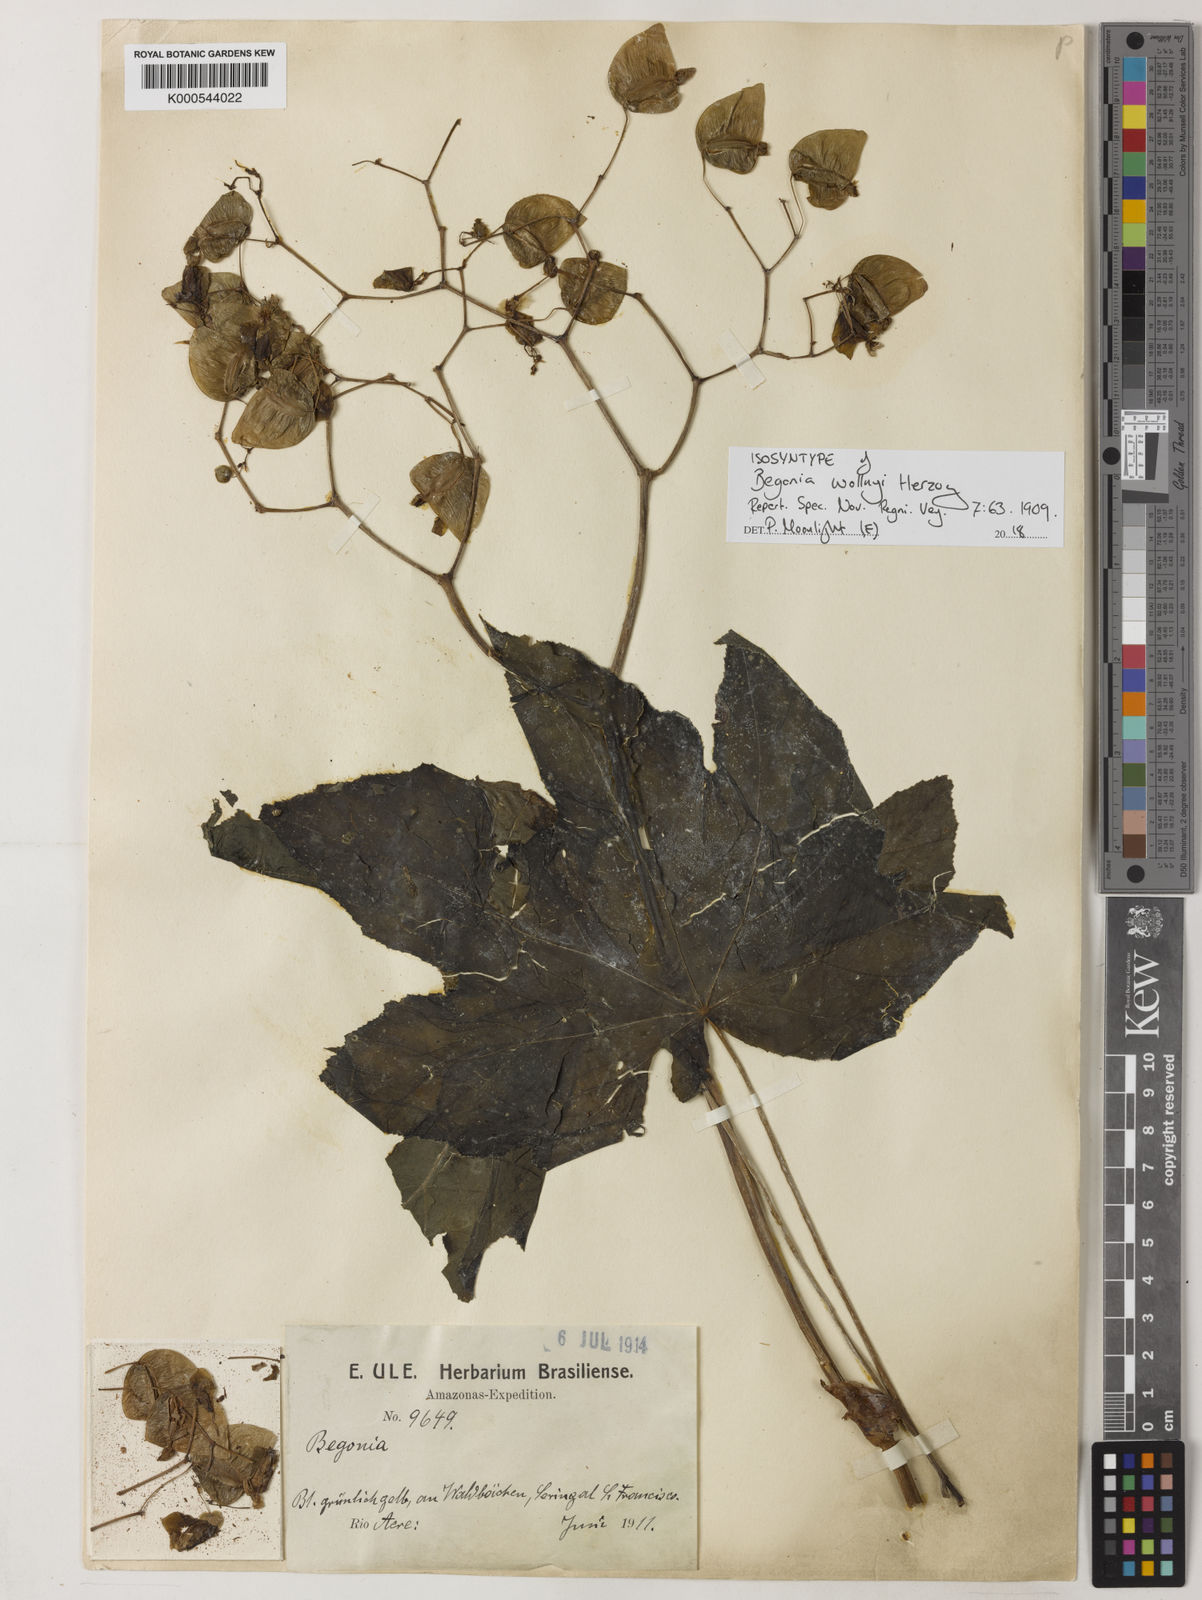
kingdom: Plantae
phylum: Tracheophyta
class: Magnoliopsida
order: Cucurbitales
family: Begoniaceae
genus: Begonia
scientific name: Begonia wollnyi
